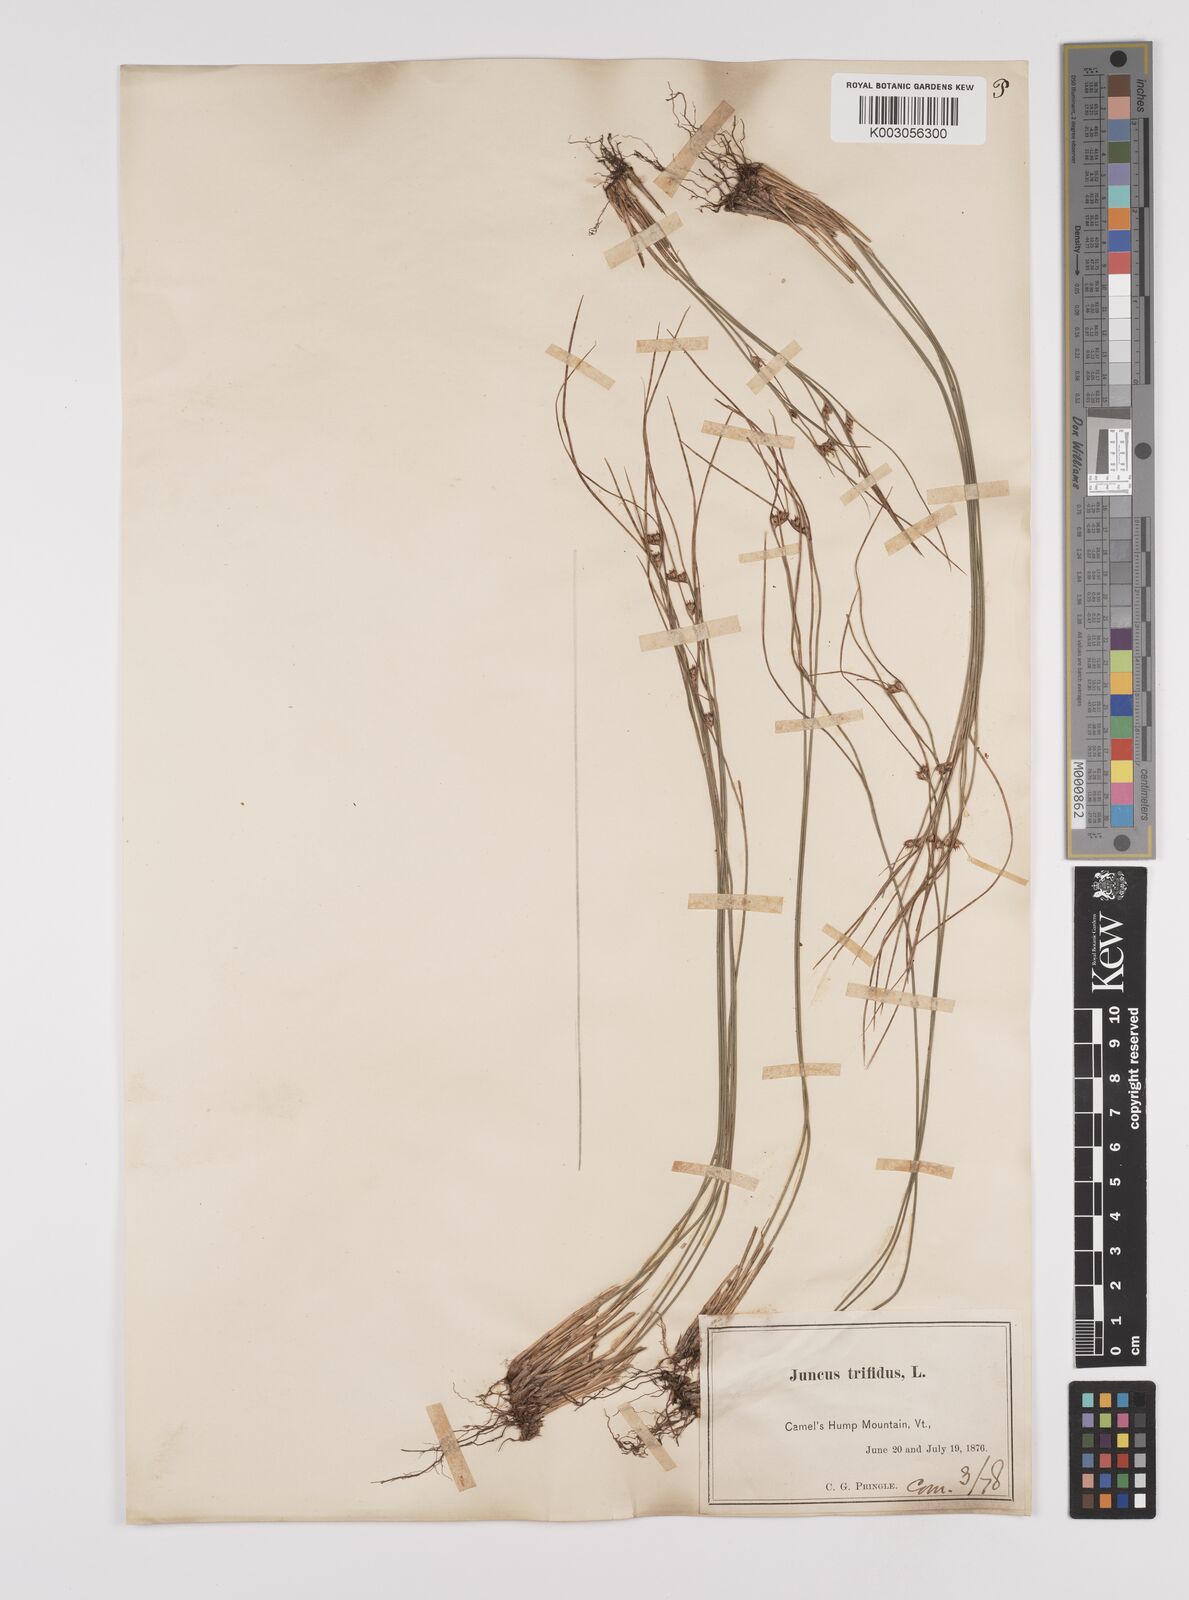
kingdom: Plantae
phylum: Tracheophyta
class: Liliopsida
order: Poales
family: Juncaceae
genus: Oreojuncus
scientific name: Oreojuncus trifidus
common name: Highland rush
